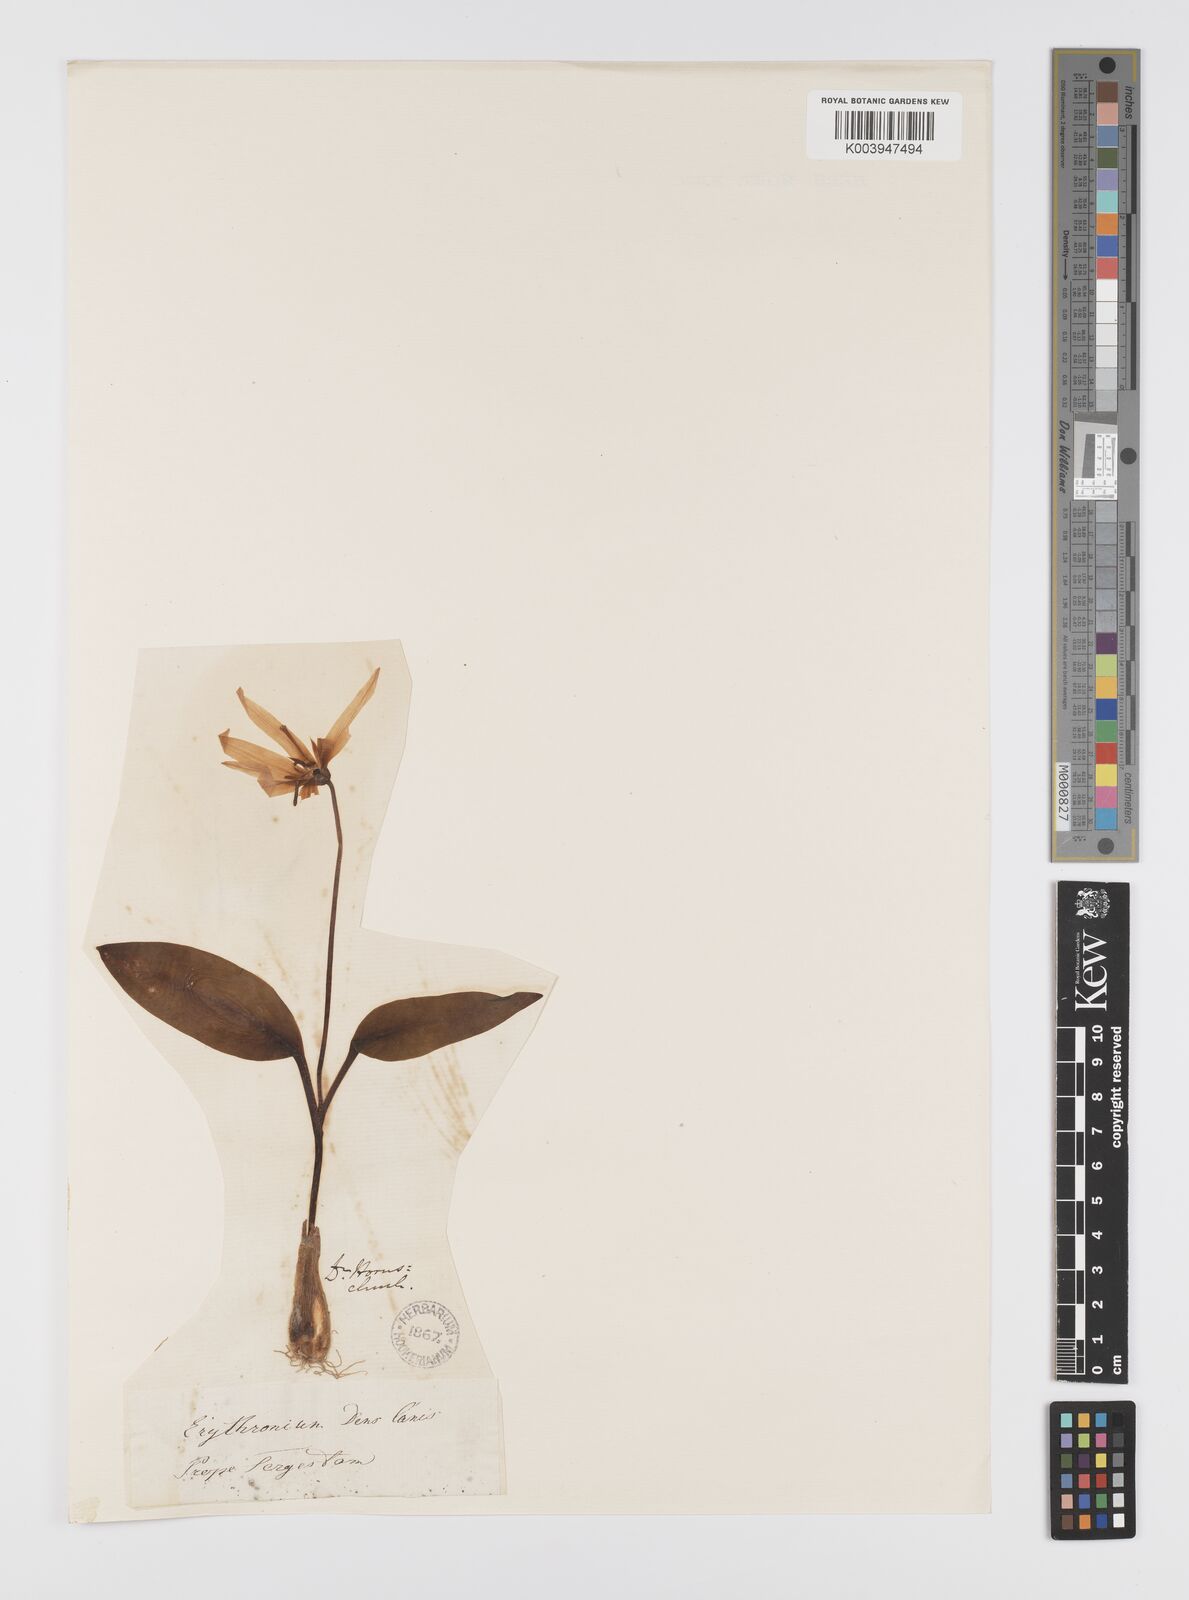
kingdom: Plantae
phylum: Tracheophyta
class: Liliopsida
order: Liliales
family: Liliaceae
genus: Erythronium
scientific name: Erythronium dens-canis
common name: Dog's-tooth-violet
